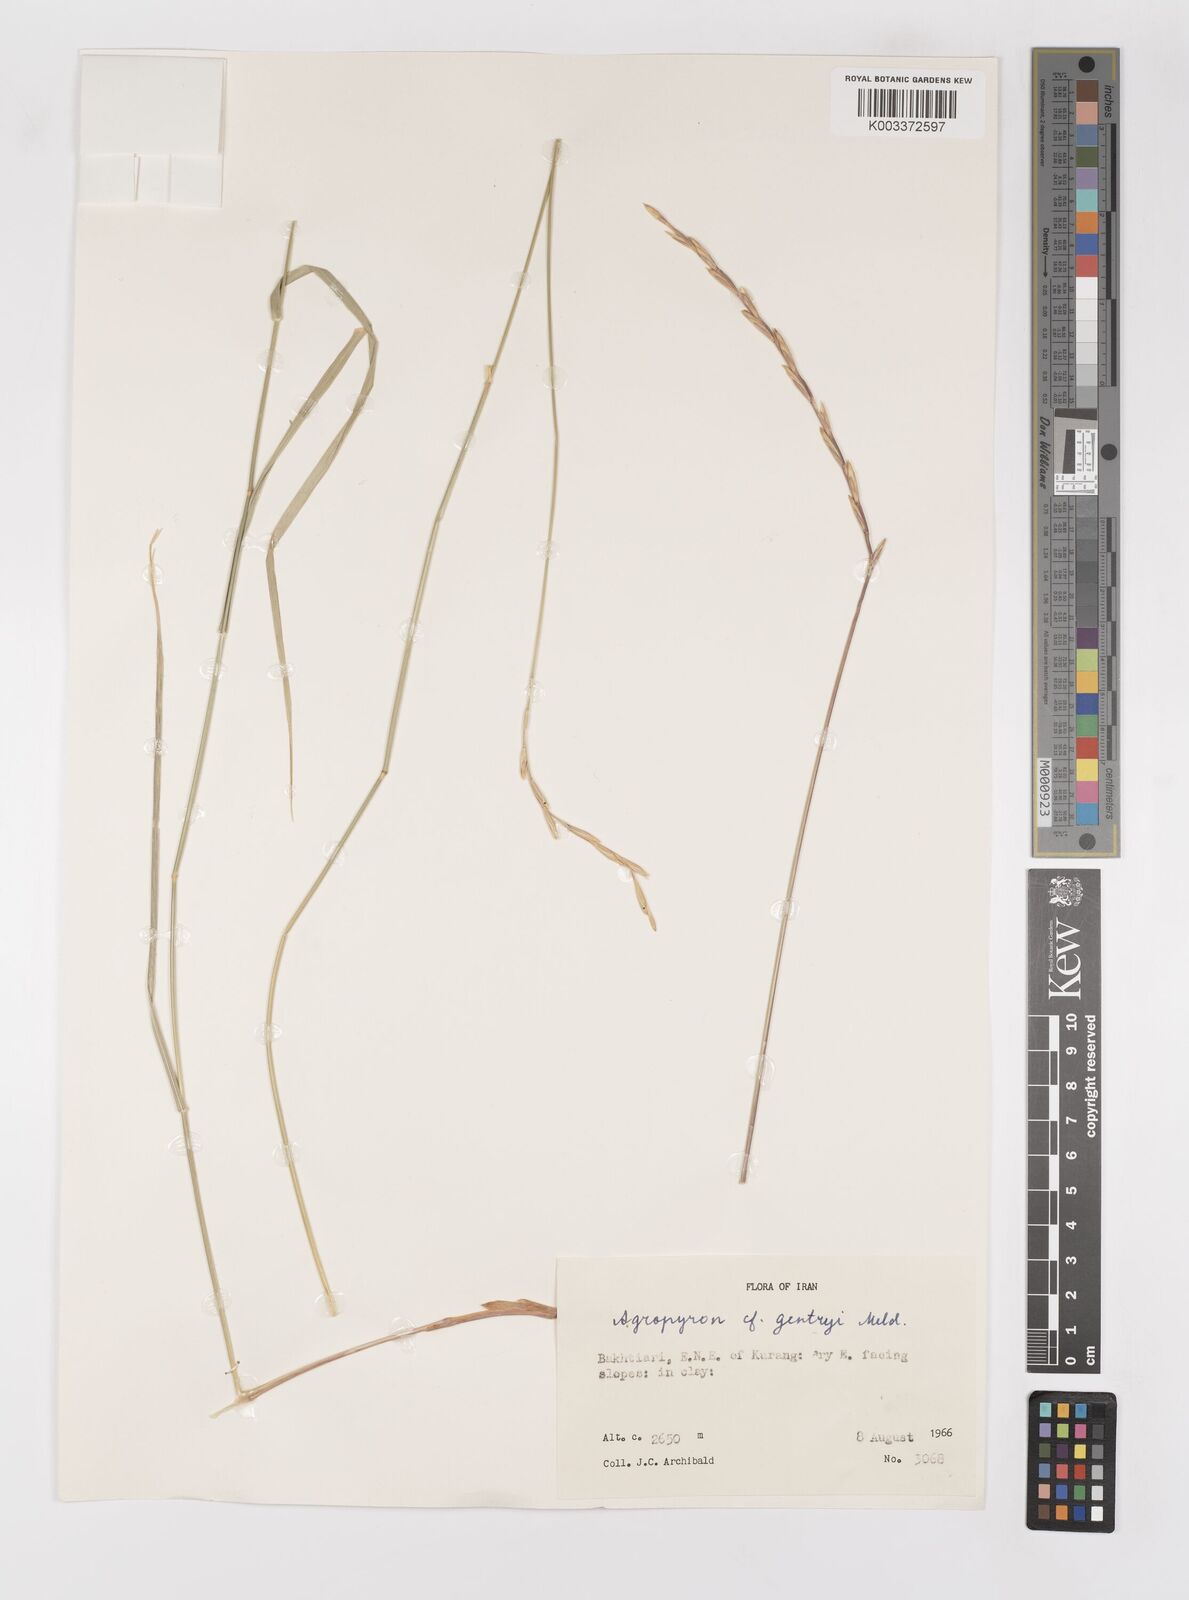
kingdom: Plantae
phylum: Tracheophyta
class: Liliopsida
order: Poales
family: Poaceae
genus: Elymus
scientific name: Elymus
